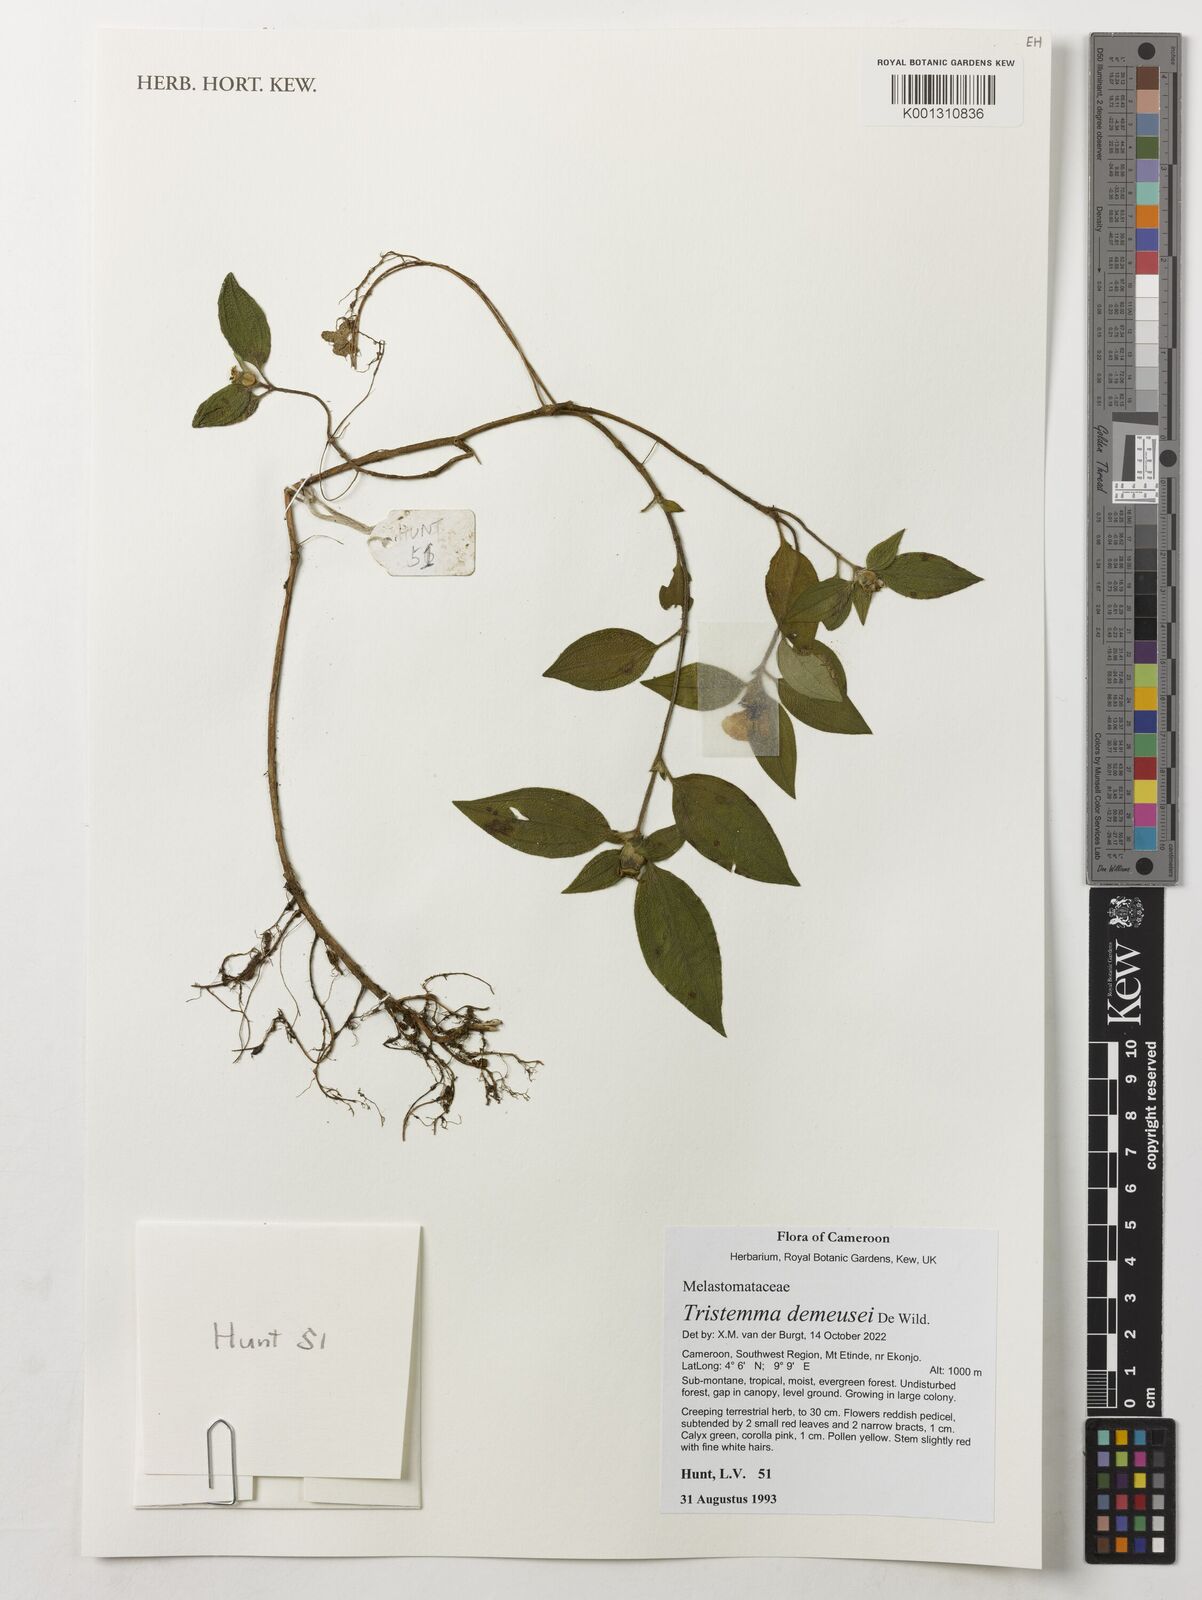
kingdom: Plantae
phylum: Tracheophyta
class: Magnoliopsida
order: Myrtales
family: Melastomataceae
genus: Tristemma
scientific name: Tristemma demeusei
